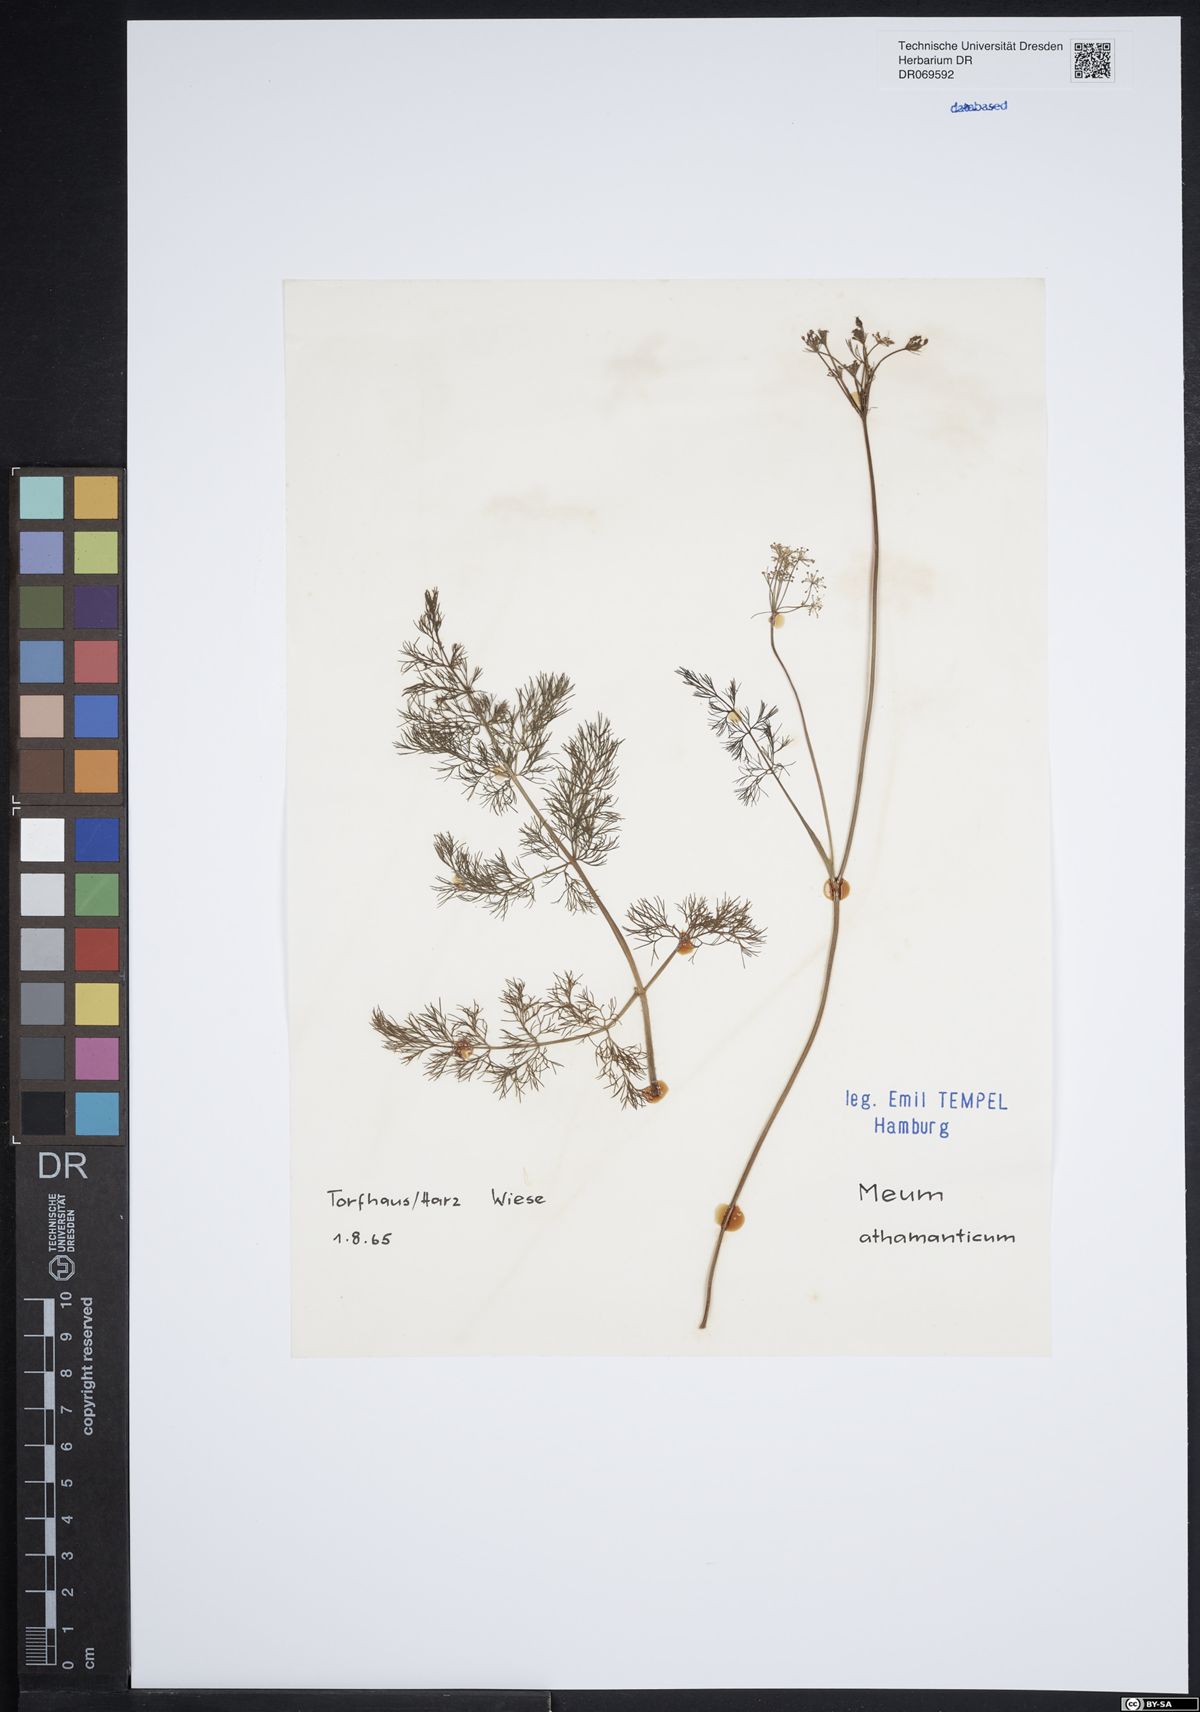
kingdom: Plantae
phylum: Tracheophyta
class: Magnoliopsida
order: Apiales
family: Apiaceae
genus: Meum
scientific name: Meum athamanticum
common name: Spignel
